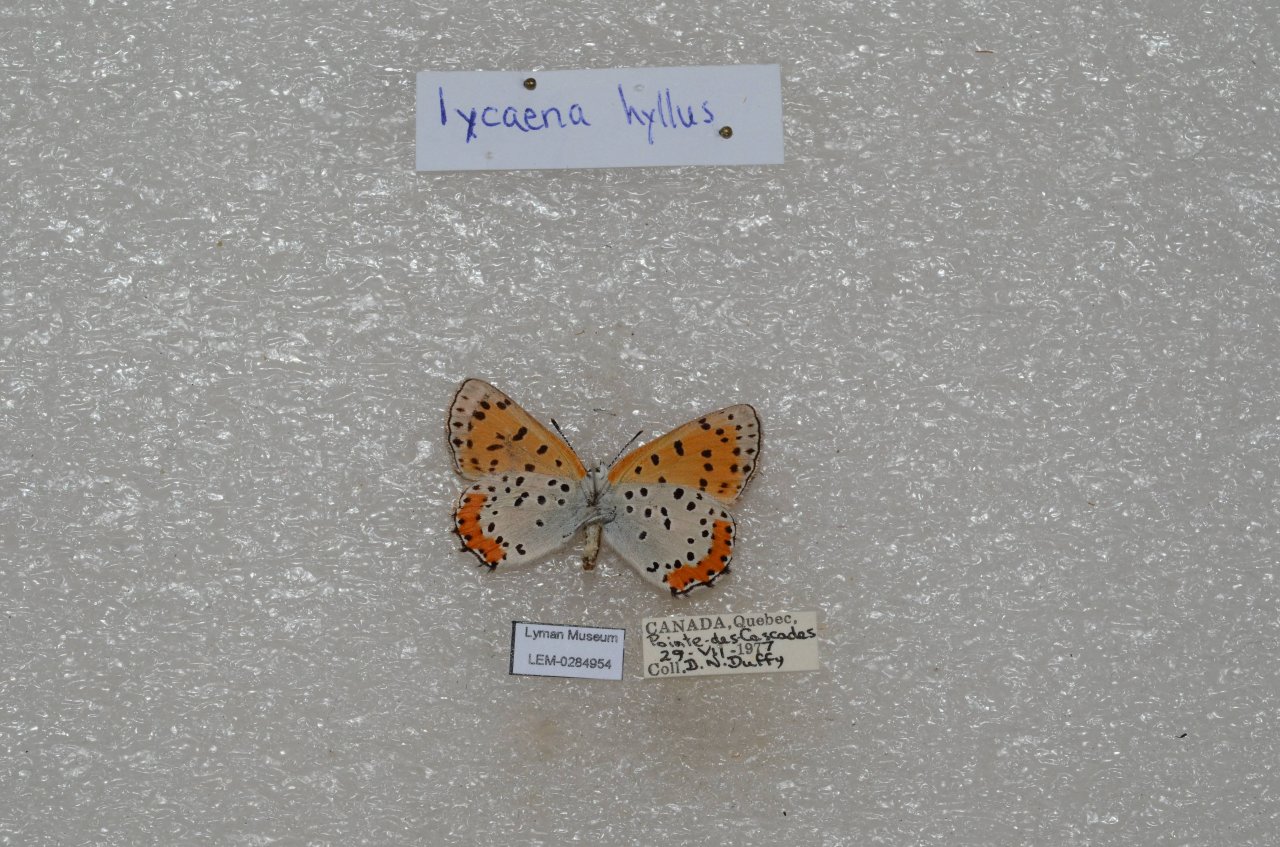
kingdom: Animalia
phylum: Arthropoda
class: Insecta
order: Lepidoptera
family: Sesiidae
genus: Sesia
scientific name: Sesia Lycaena hyllus
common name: Bronze Copper
